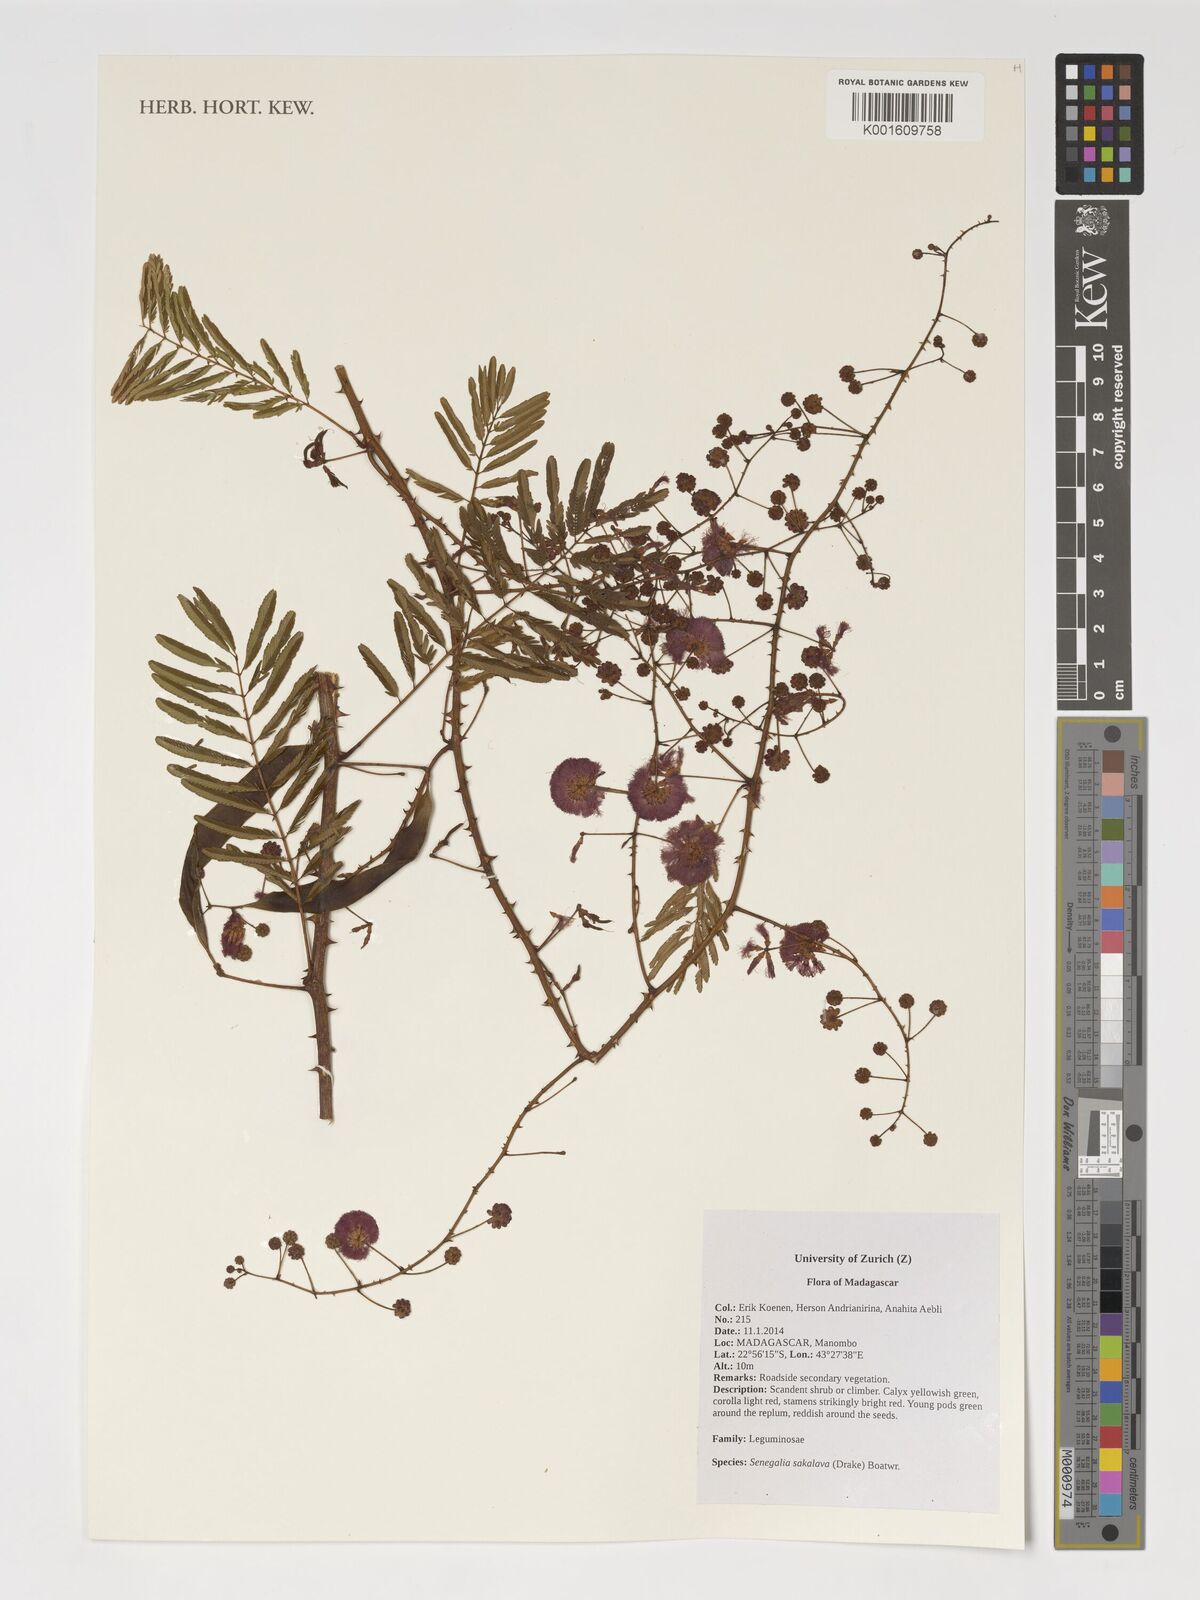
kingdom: Plantae
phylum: Tracheophyta
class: Magnoliopsida
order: Fabales
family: Fabaceae
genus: Senegalia
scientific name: Senegalia sakalava
